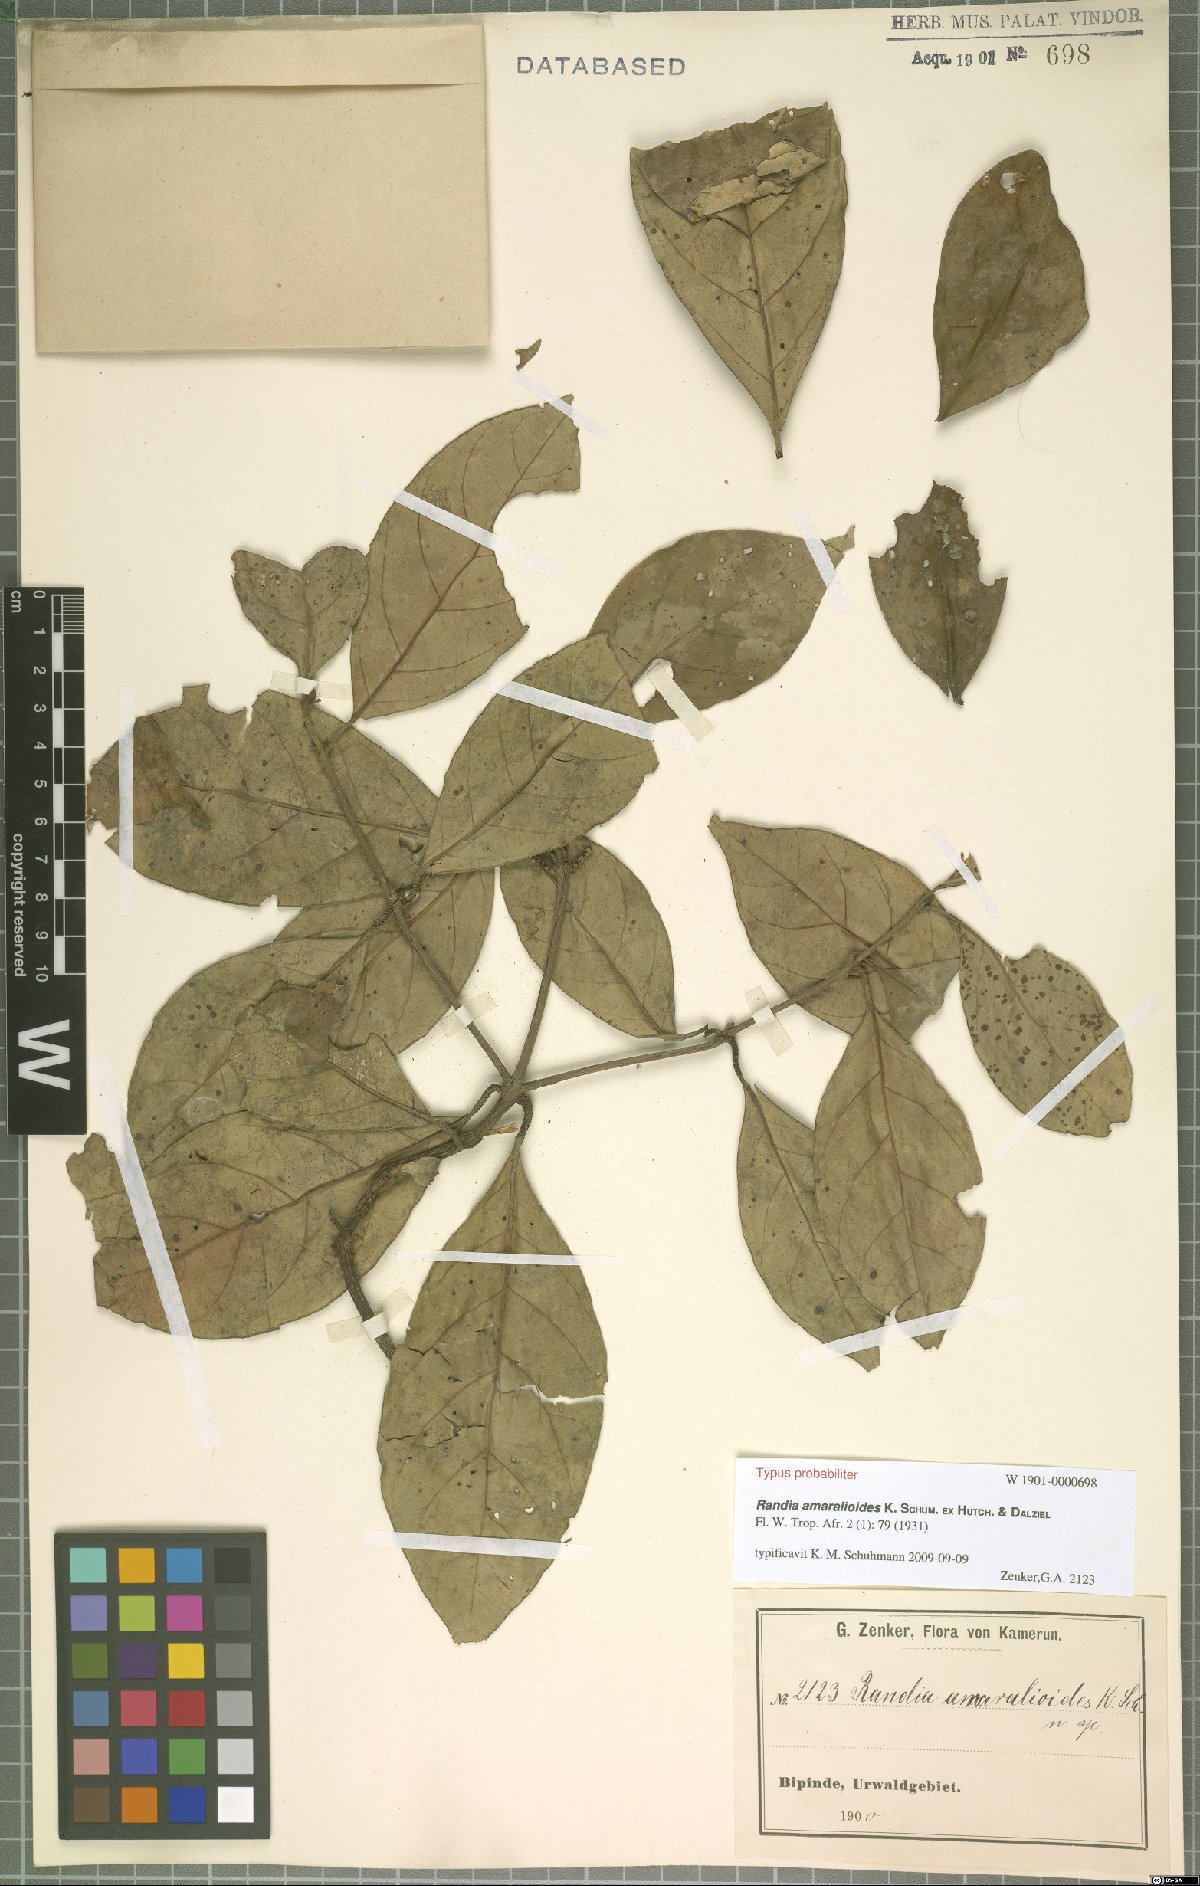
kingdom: Plantae
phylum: Tracheophyta
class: Magnoliopsida
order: Gentianales
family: Rubiaceae
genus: Sherbournia
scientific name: Sherbournia calycina
